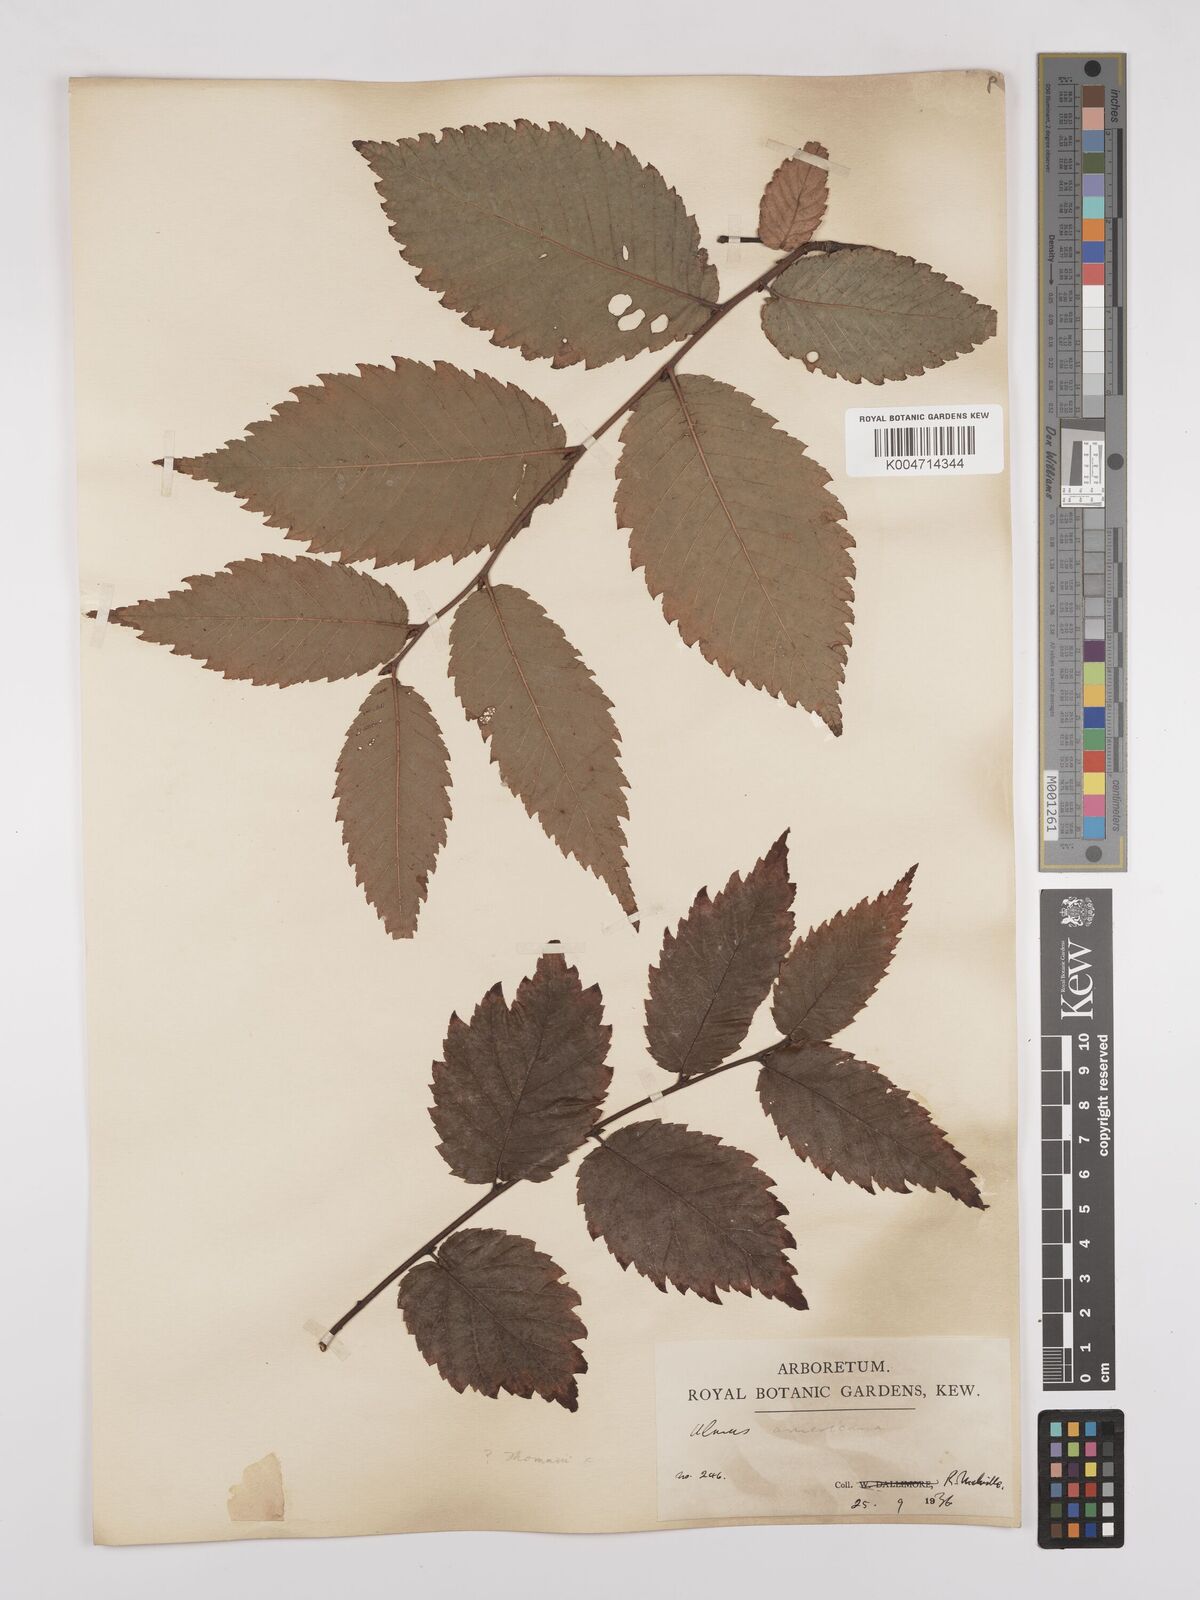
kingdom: Plantae
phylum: Tracheophyta
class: Magnoliopsida
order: Rosales
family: Ulmaceae
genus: Ulmus
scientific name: Ulmus americana
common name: American elm
